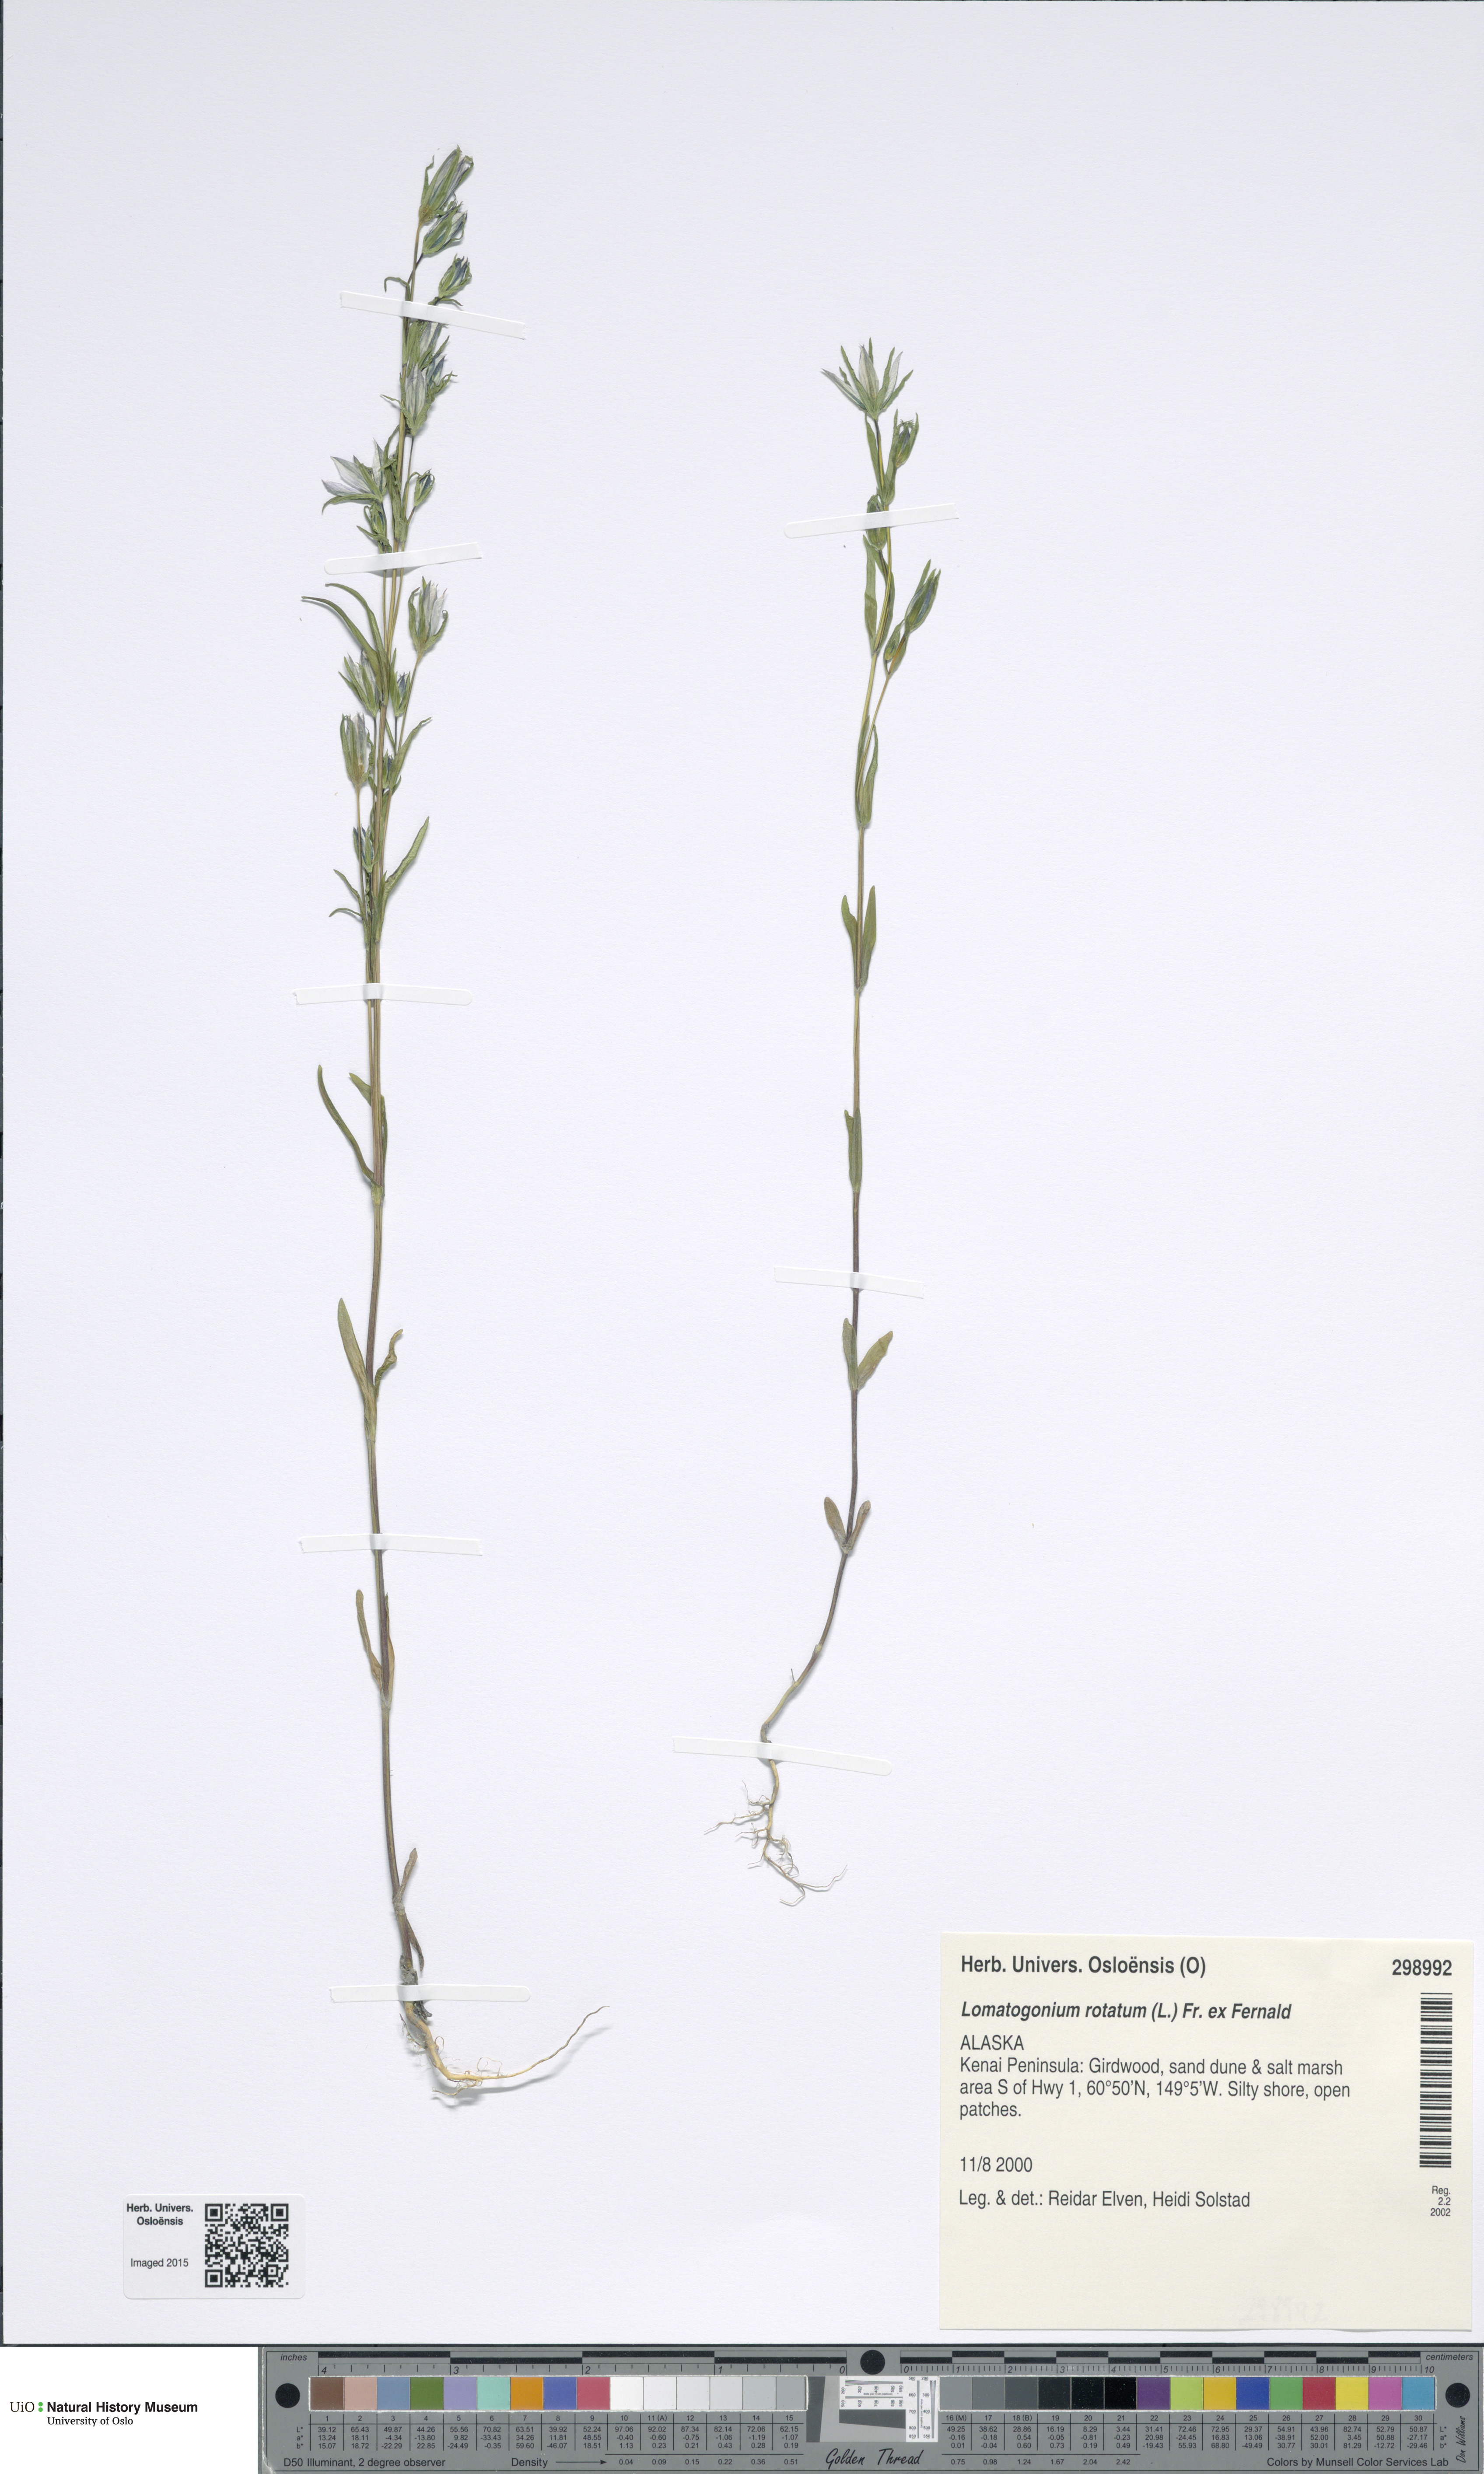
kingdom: Plantae
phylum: Tracheophyta
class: Magnoliopsida
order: Gentianales
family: Gentianaceae
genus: Lomatogonium
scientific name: Lomatogonium rotatum
